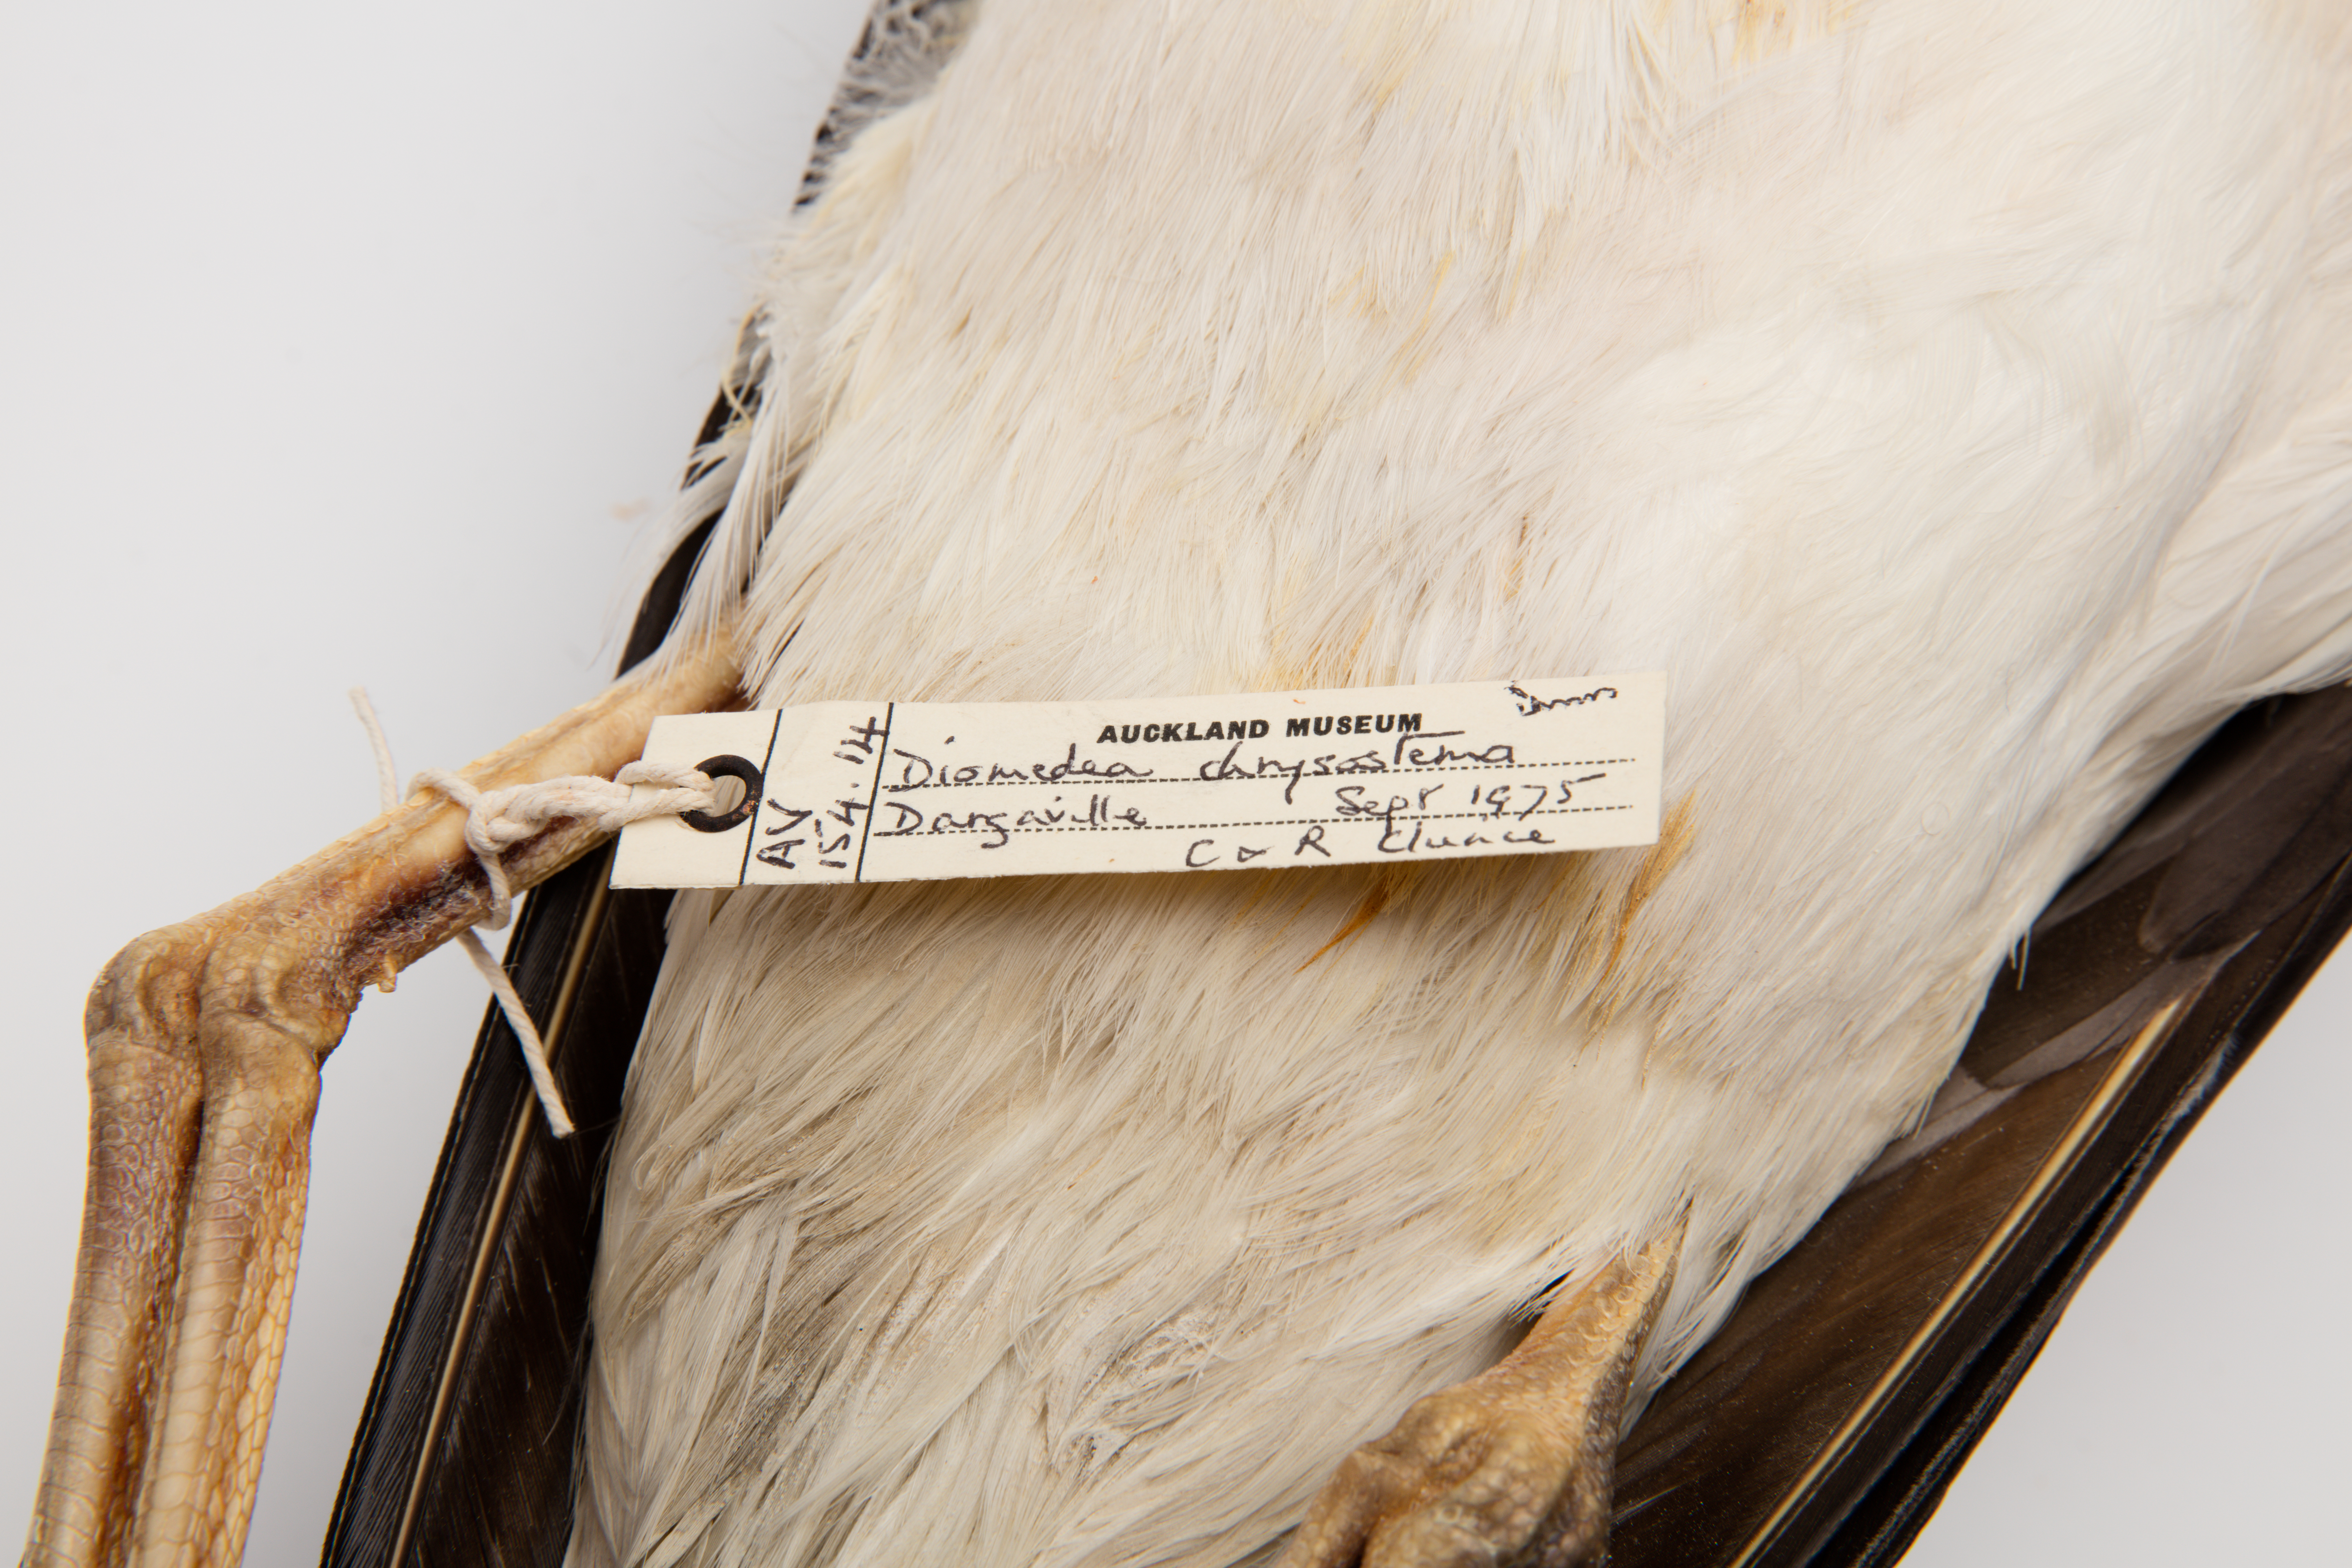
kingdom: Animalia
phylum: Chordata
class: Aves
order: Procellariiformes
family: Diomedeidae
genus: Thalassarche
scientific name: Thalassarche chrysostoma
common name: Grey-headed albatross
